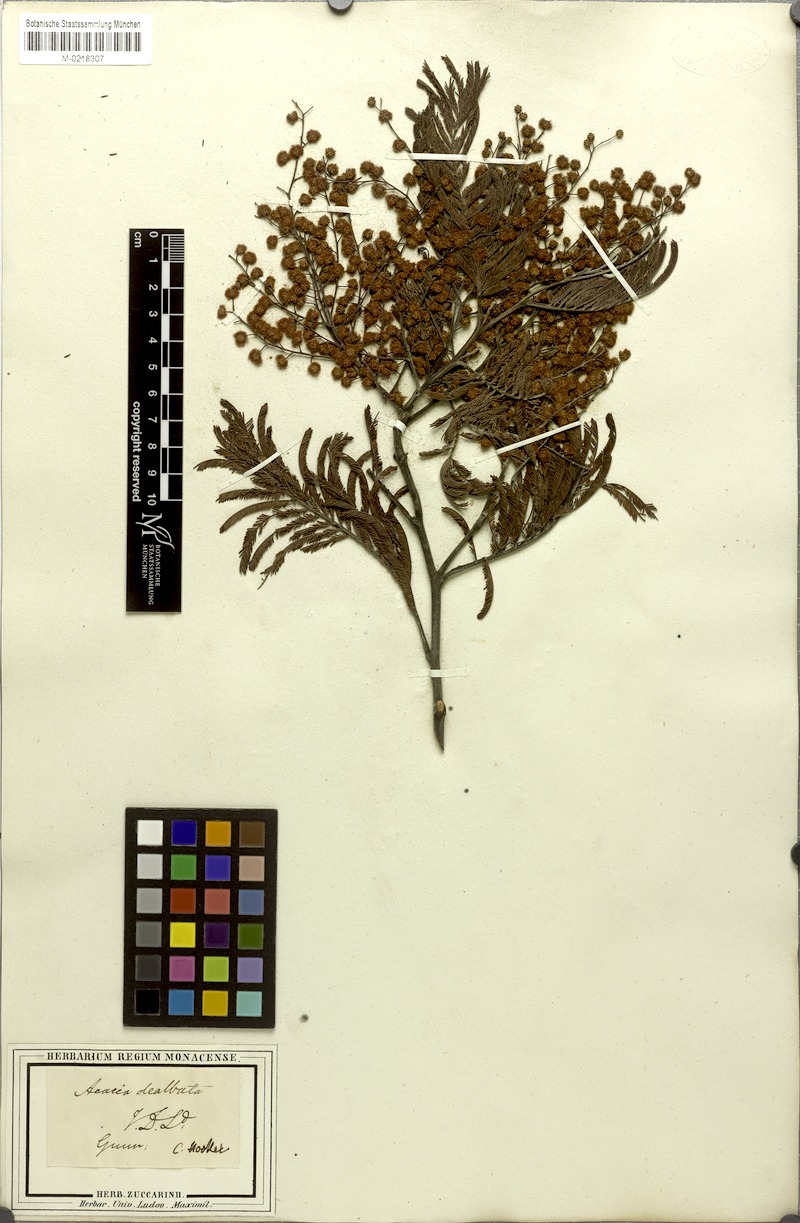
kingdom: Plantae
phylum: Tracheophyta
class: Magnoliopsida
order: Fabales
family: Fabaceae
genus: Acacia
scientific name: Acacia dealbata
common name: Silver wattle
